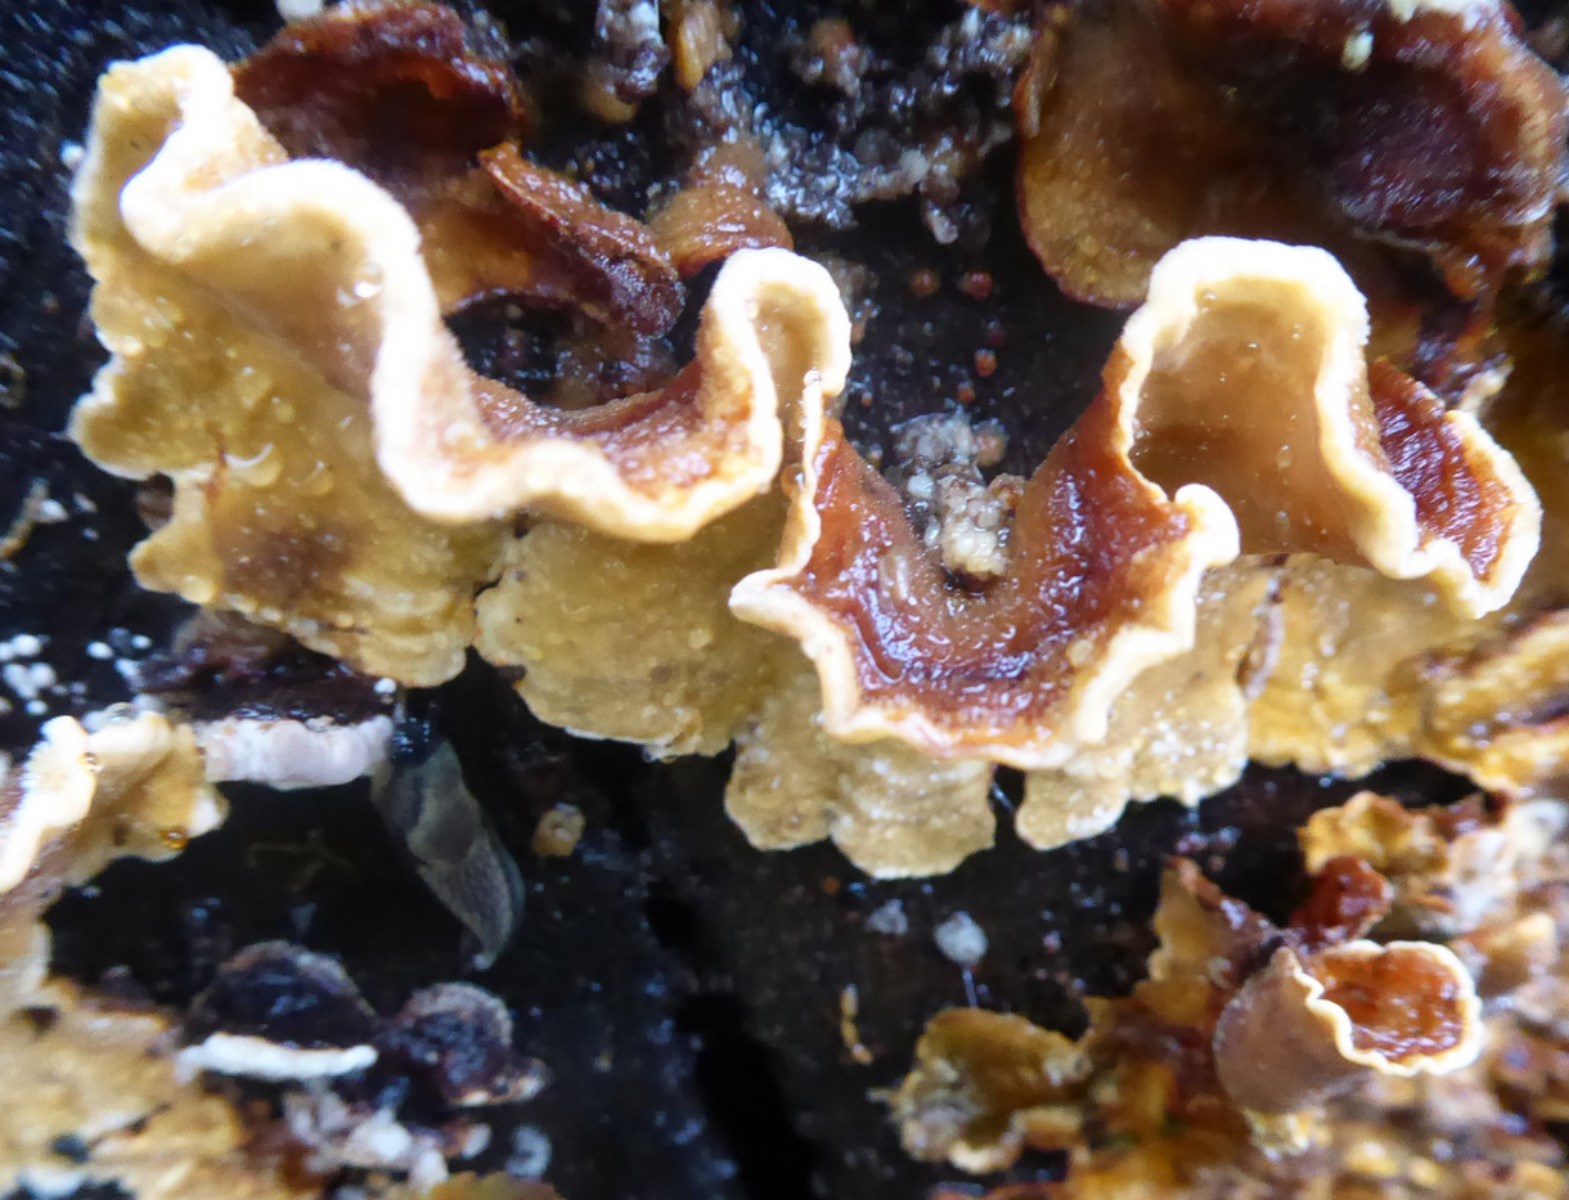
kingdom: Fungi
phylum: Basidiomycota
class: Agaricomycetes
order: Russulales
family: Stereaceae
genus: Stereum
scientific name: Stereum hirsutum
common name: håret lædersvamp
